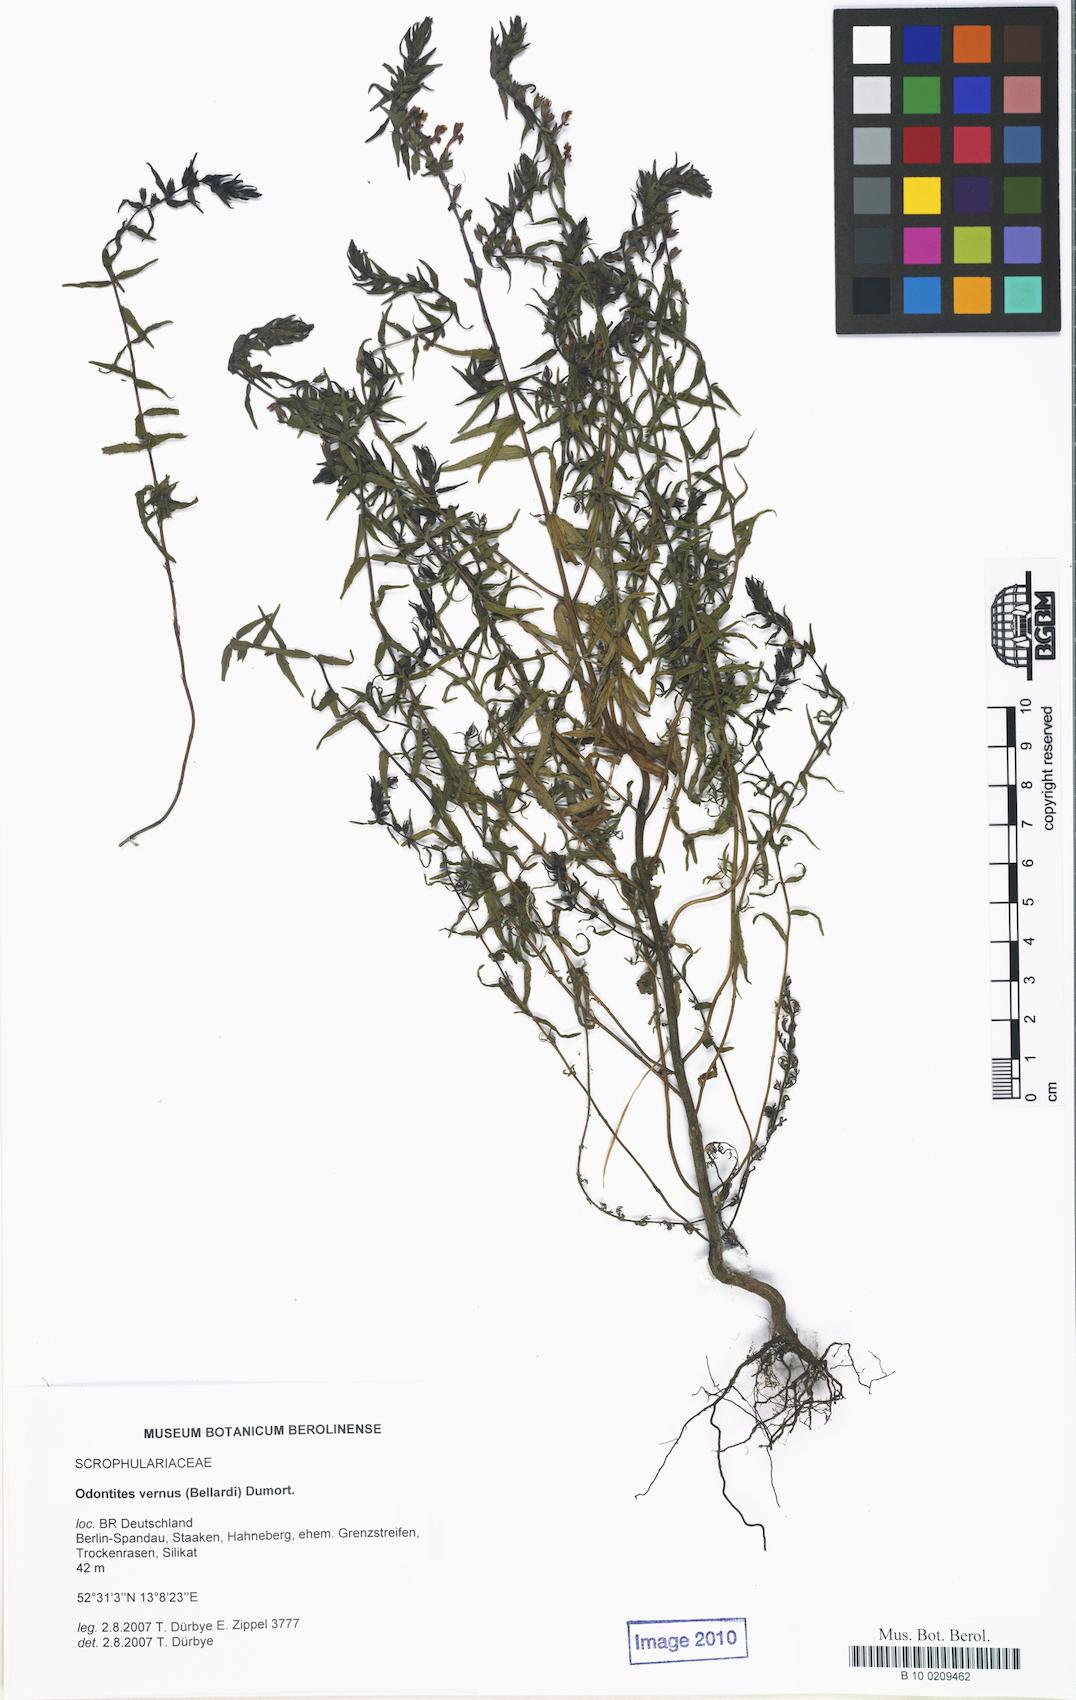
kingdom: Plantae
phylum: Tracheophyta
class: Magnoliopsida
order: Lamiales
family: Orobanchaceae
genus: Odontites
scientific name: Odontites vernus
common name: Red bartsia
